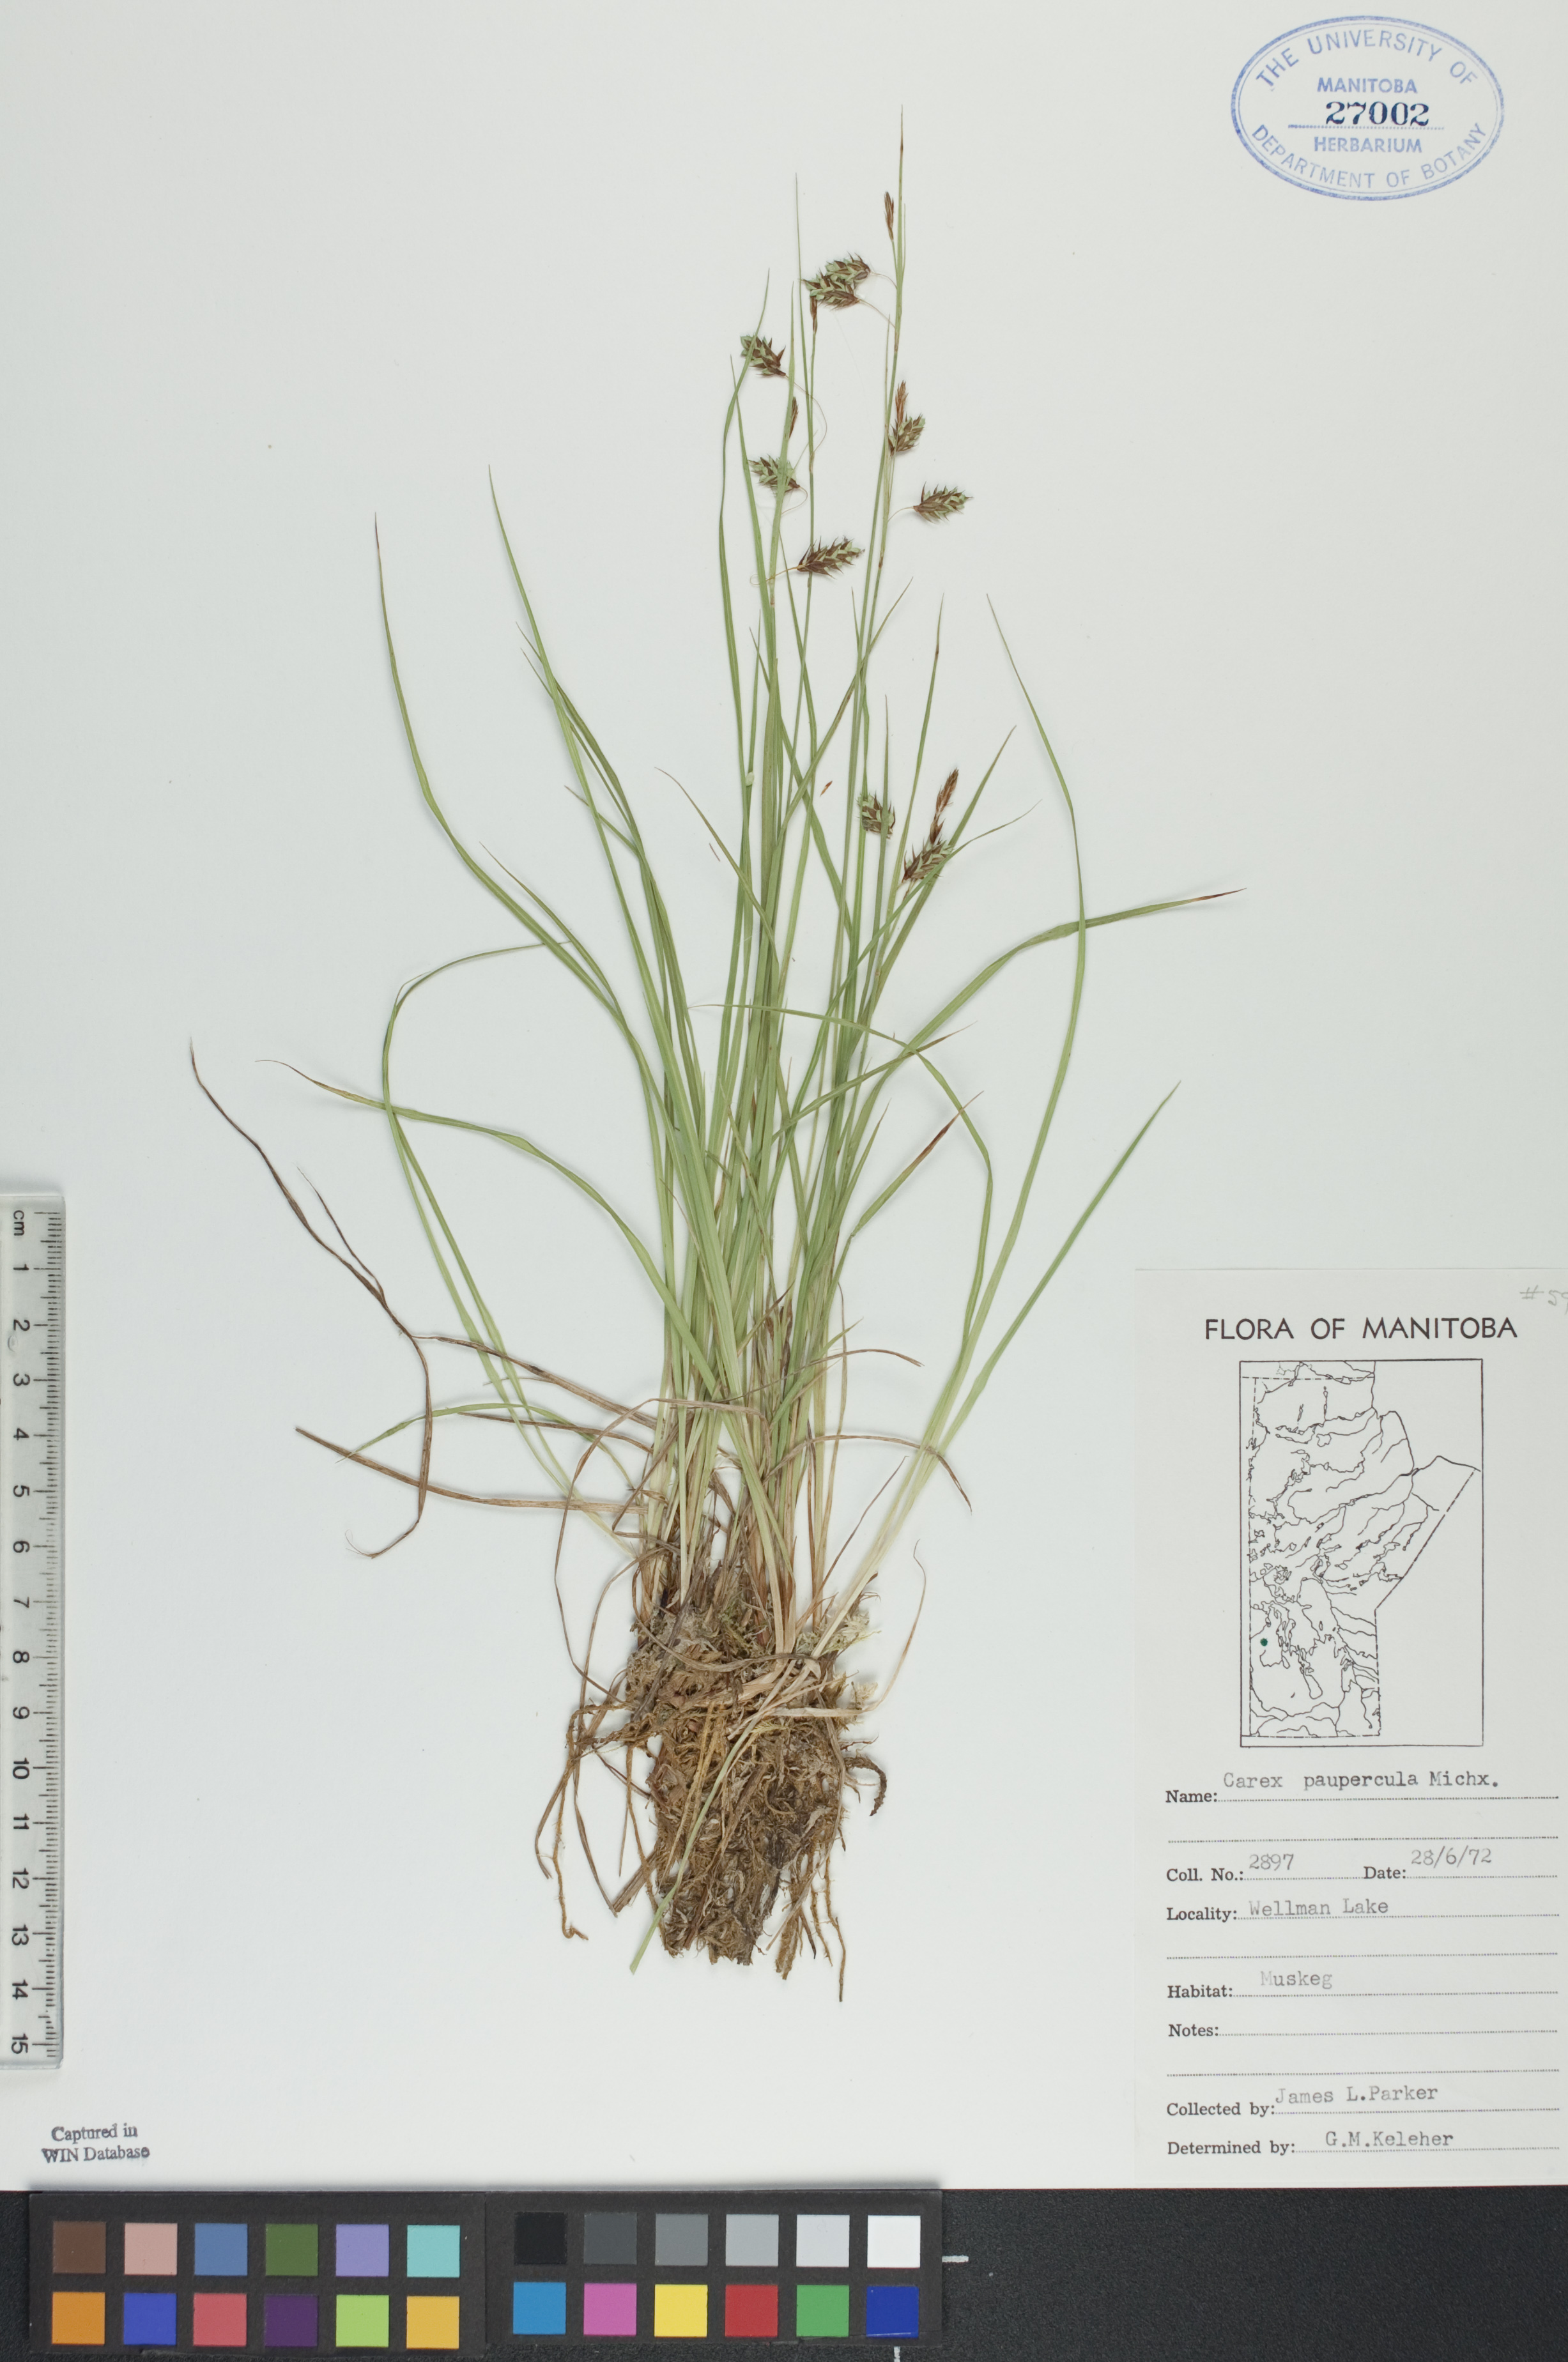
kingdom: Plantae
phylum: Tracheophyta
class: Liliopsida
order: Poales
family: Cyperaceae
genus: Carex
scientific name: Carex magellanica
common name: Bog sedge
